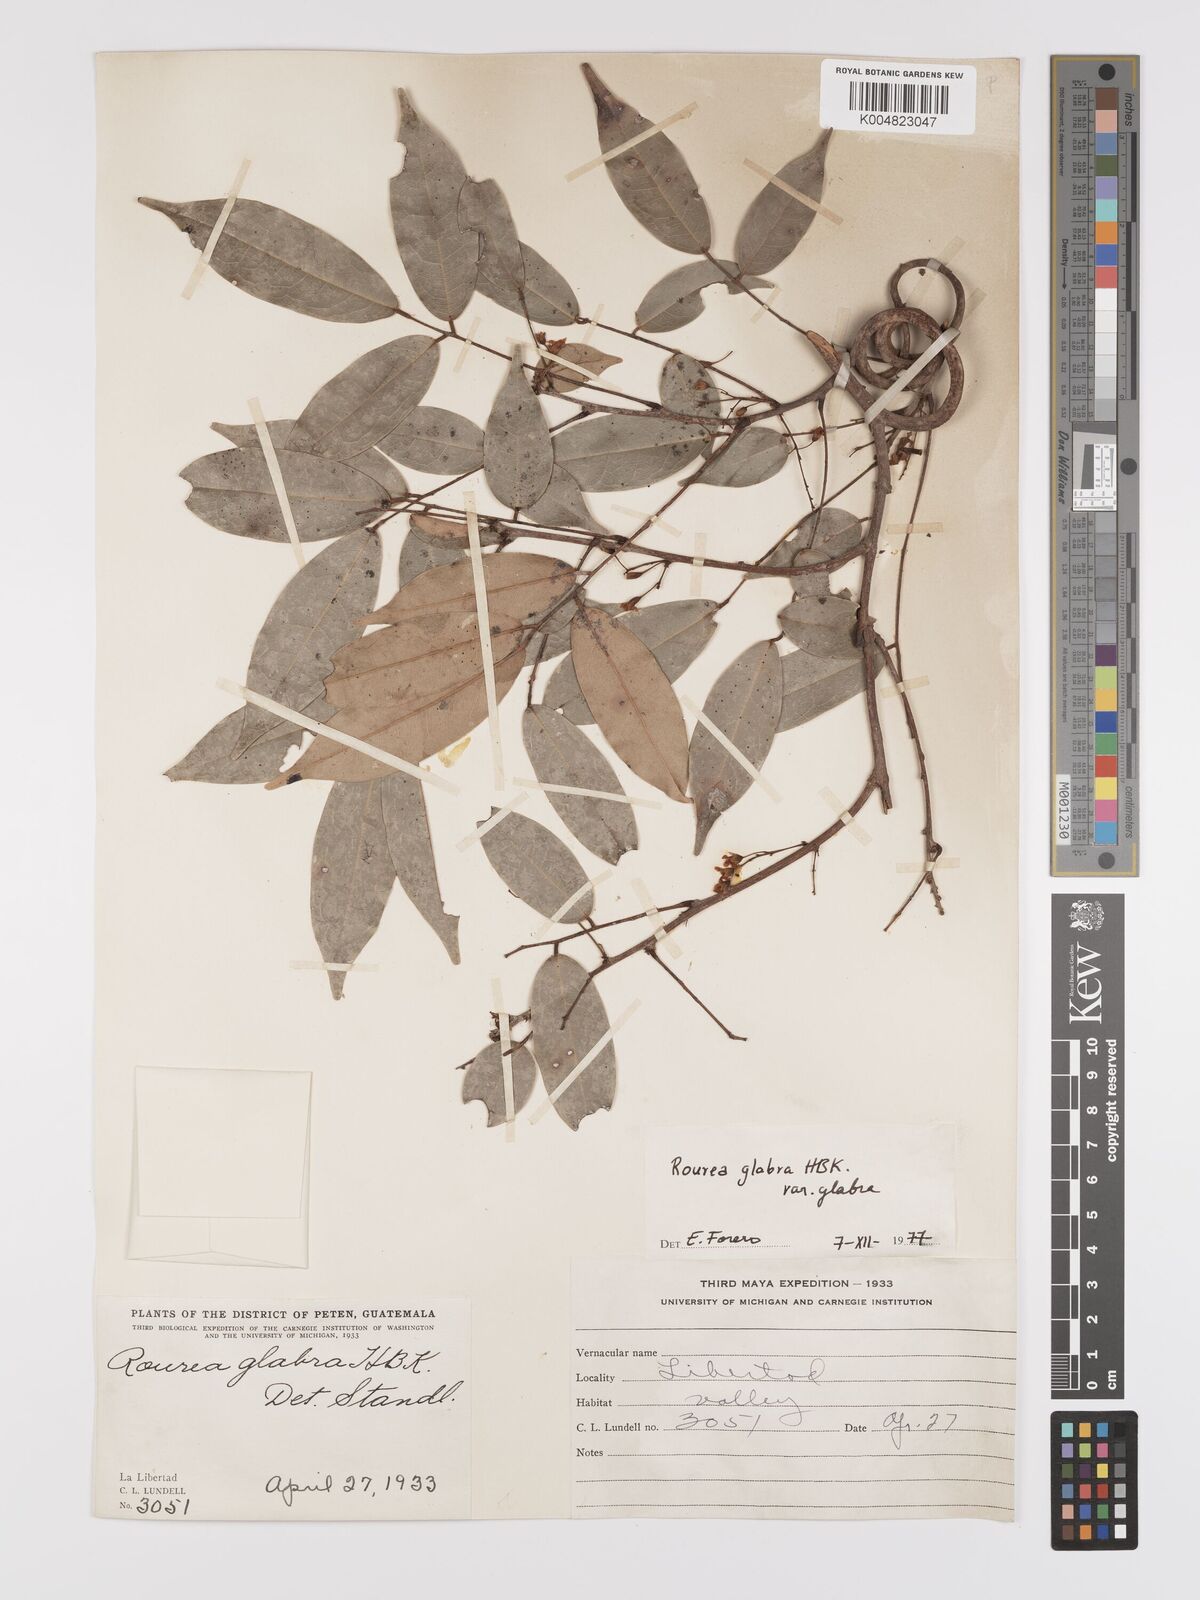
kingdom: Plantae
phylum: Tracheophyta
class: Magnoliopsida
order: Oxalidales
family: Connaraceae
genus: Rourea
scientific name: Rourea glabra
